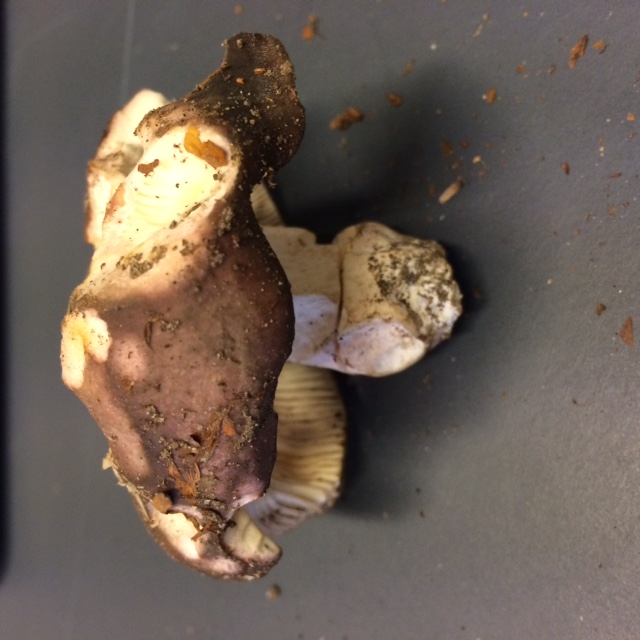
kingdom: Fungi
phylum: Basidiomycota
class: Agaricomycetes
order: Russulales
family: Russulaceae
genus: Russula
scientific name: Russula cyanoxantha
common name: broget skørhat
